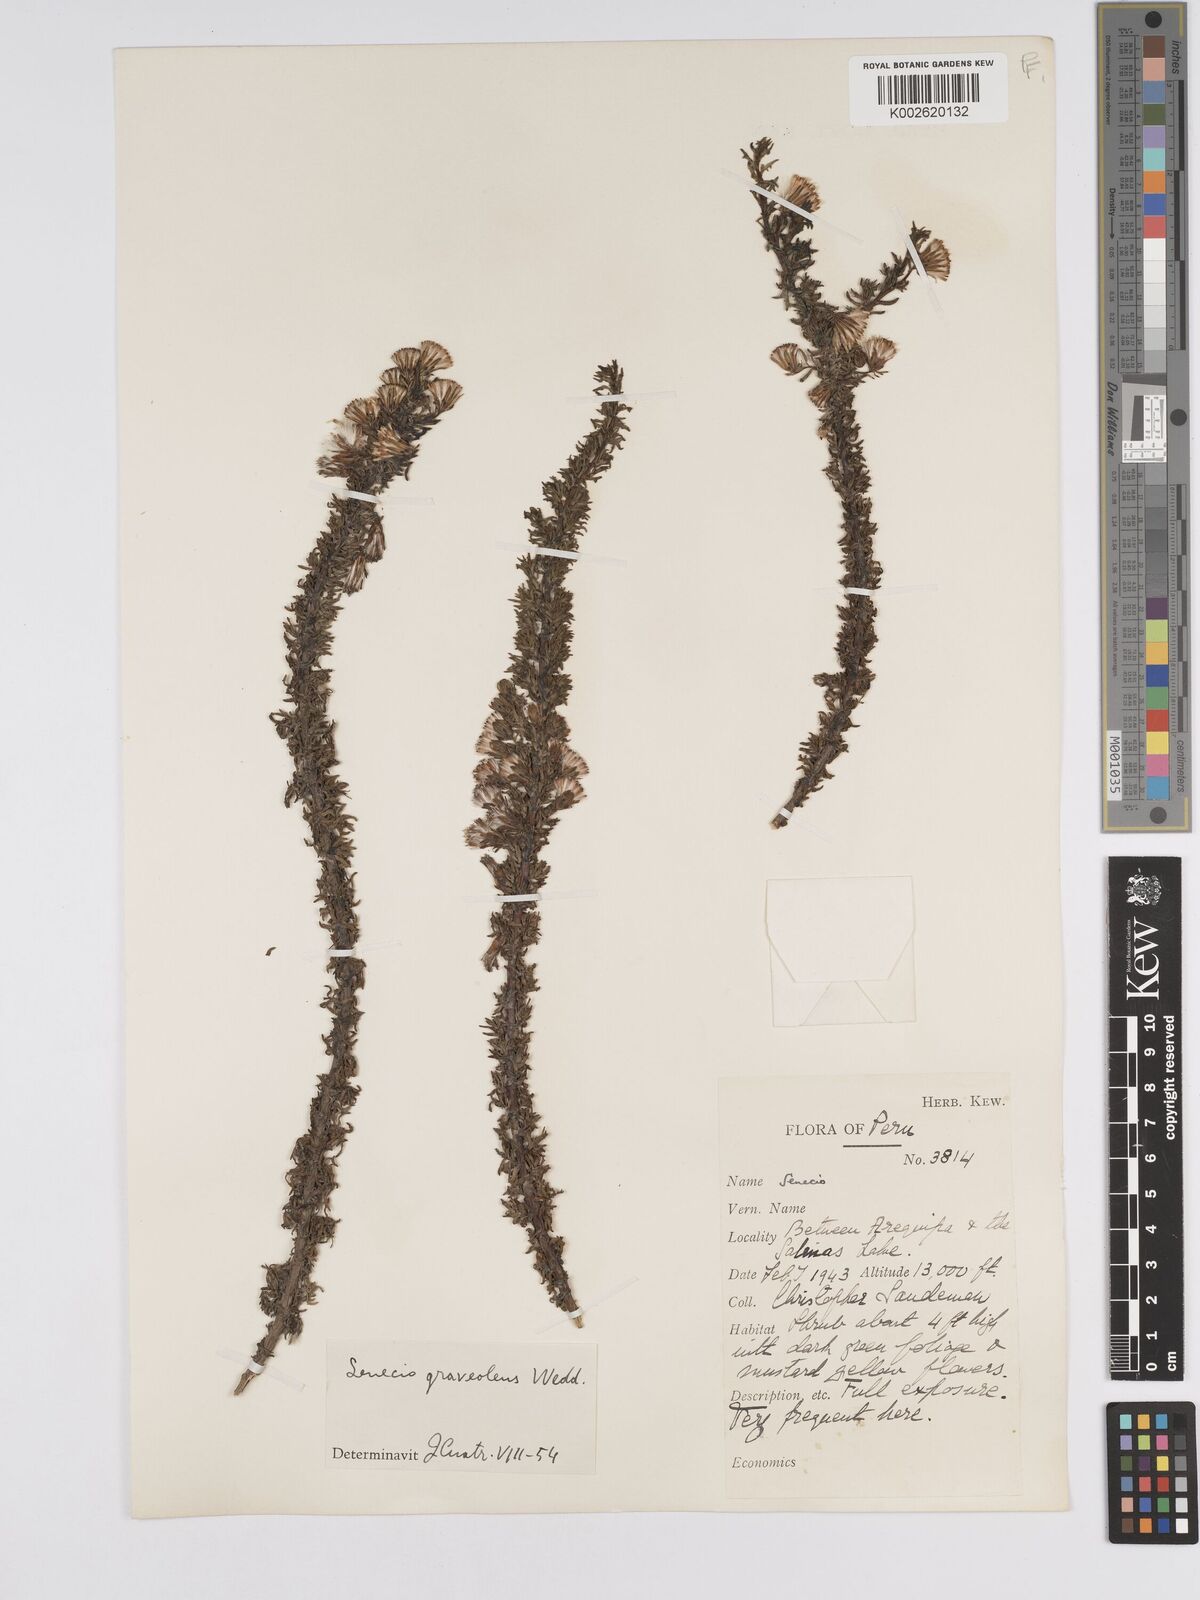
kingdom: Plantae
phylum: Tracheophyta
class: Magnoliopsida
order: Asterales
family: Asteraceae
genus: Senecio
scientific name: Senecio nutans
